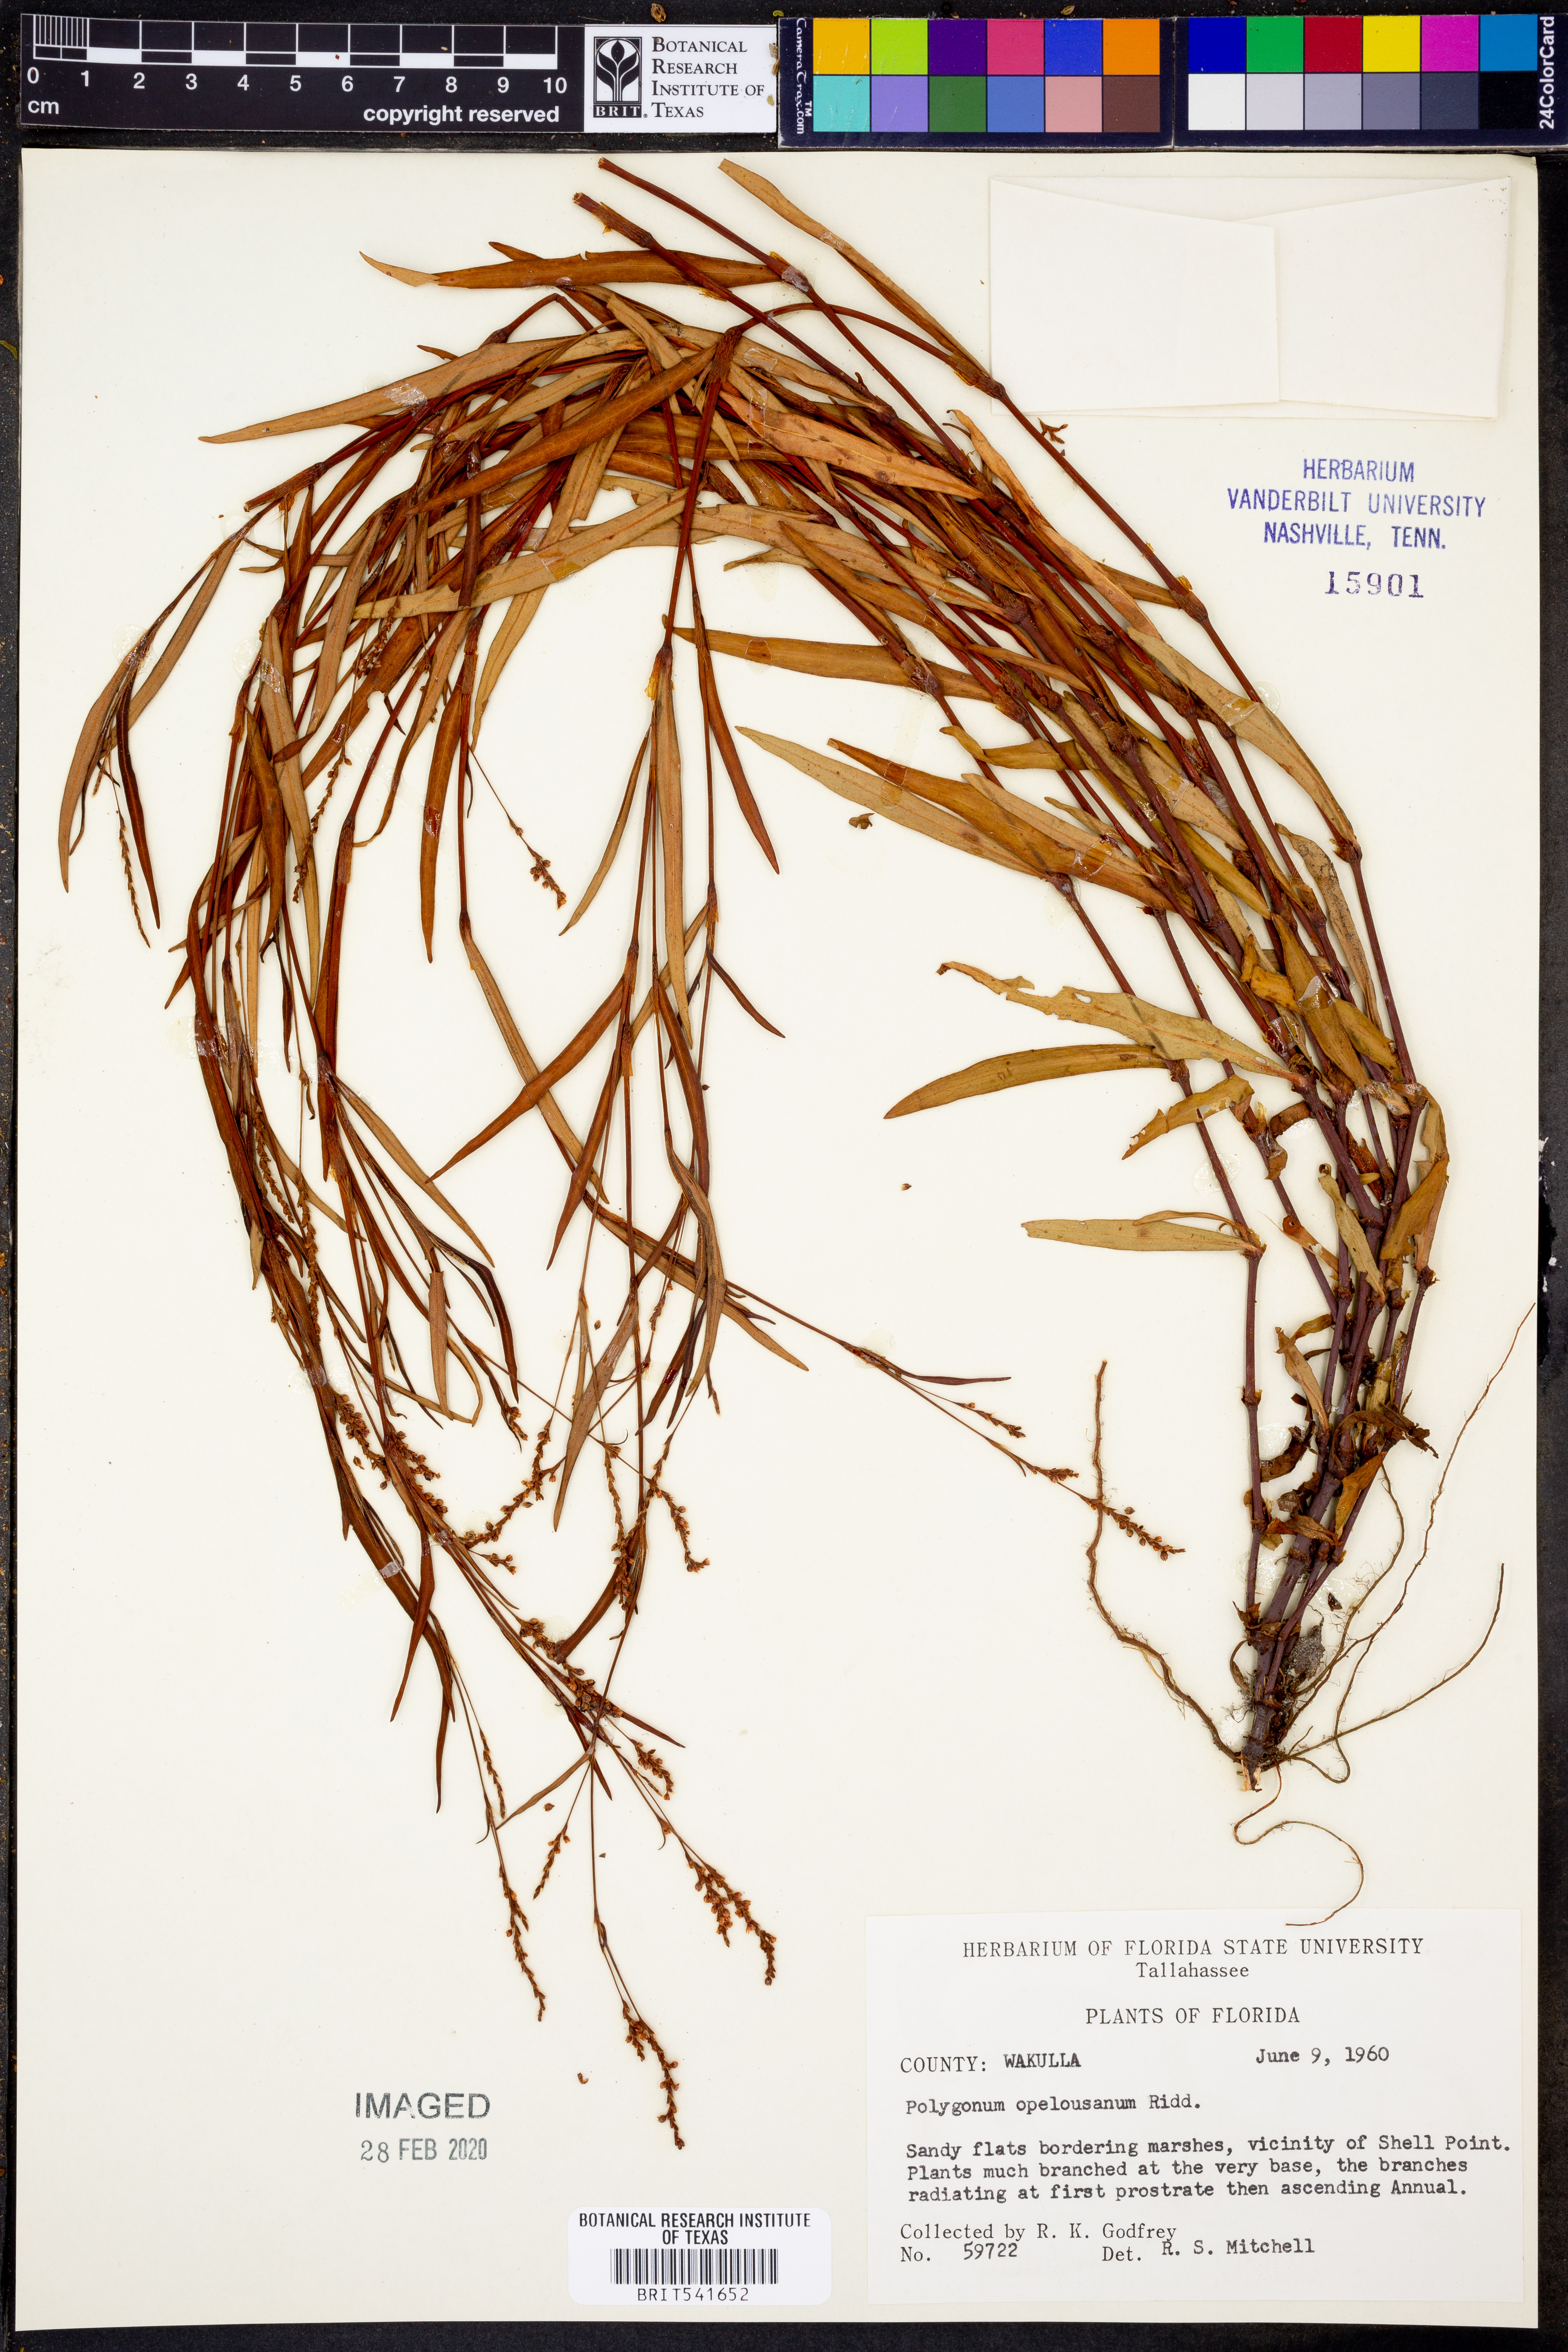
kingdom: Plantae
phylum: Tracheophyta
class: Magnoliopsida
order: Caryophyllales
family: Polygonaceae
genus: Persicaria
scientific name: Persicaria hydropiperoides
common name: Swamp smartweed
